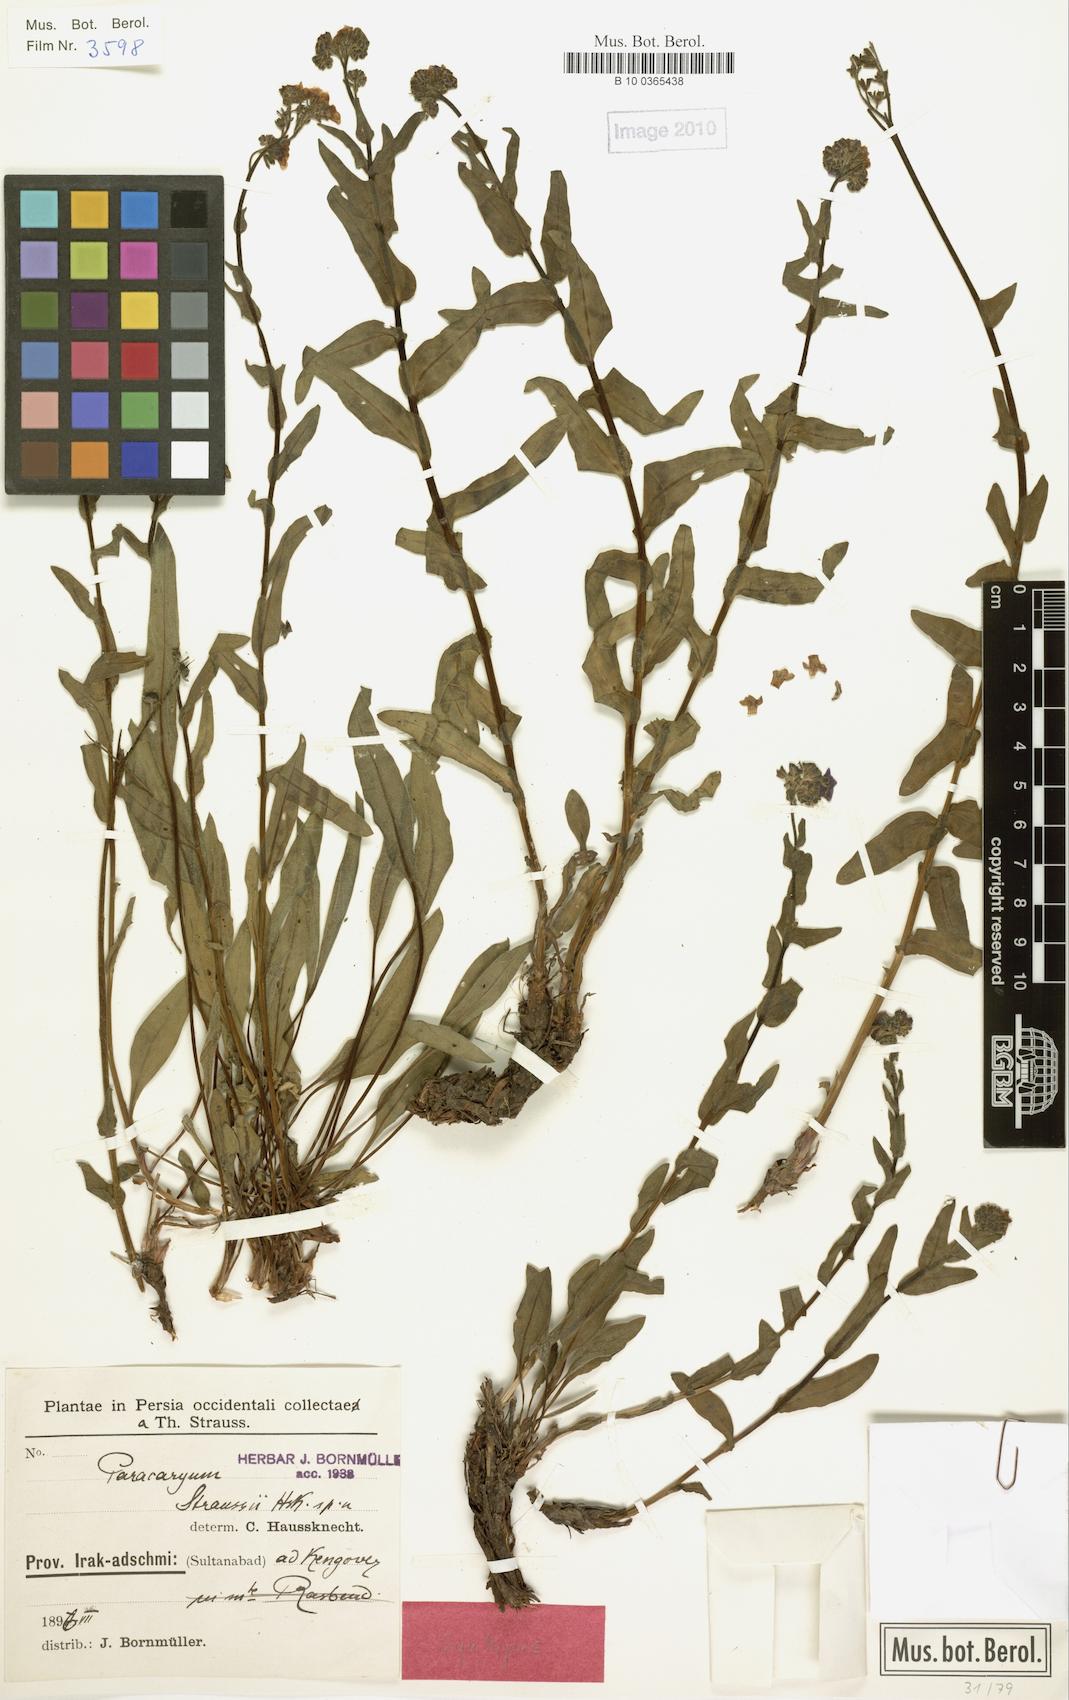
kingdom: Plantae
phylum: Tracheophyta
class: Magnoliopsida
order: Boraginales
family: Boraginaceae
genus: Paracaryum
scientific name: Paracaryum modestum
